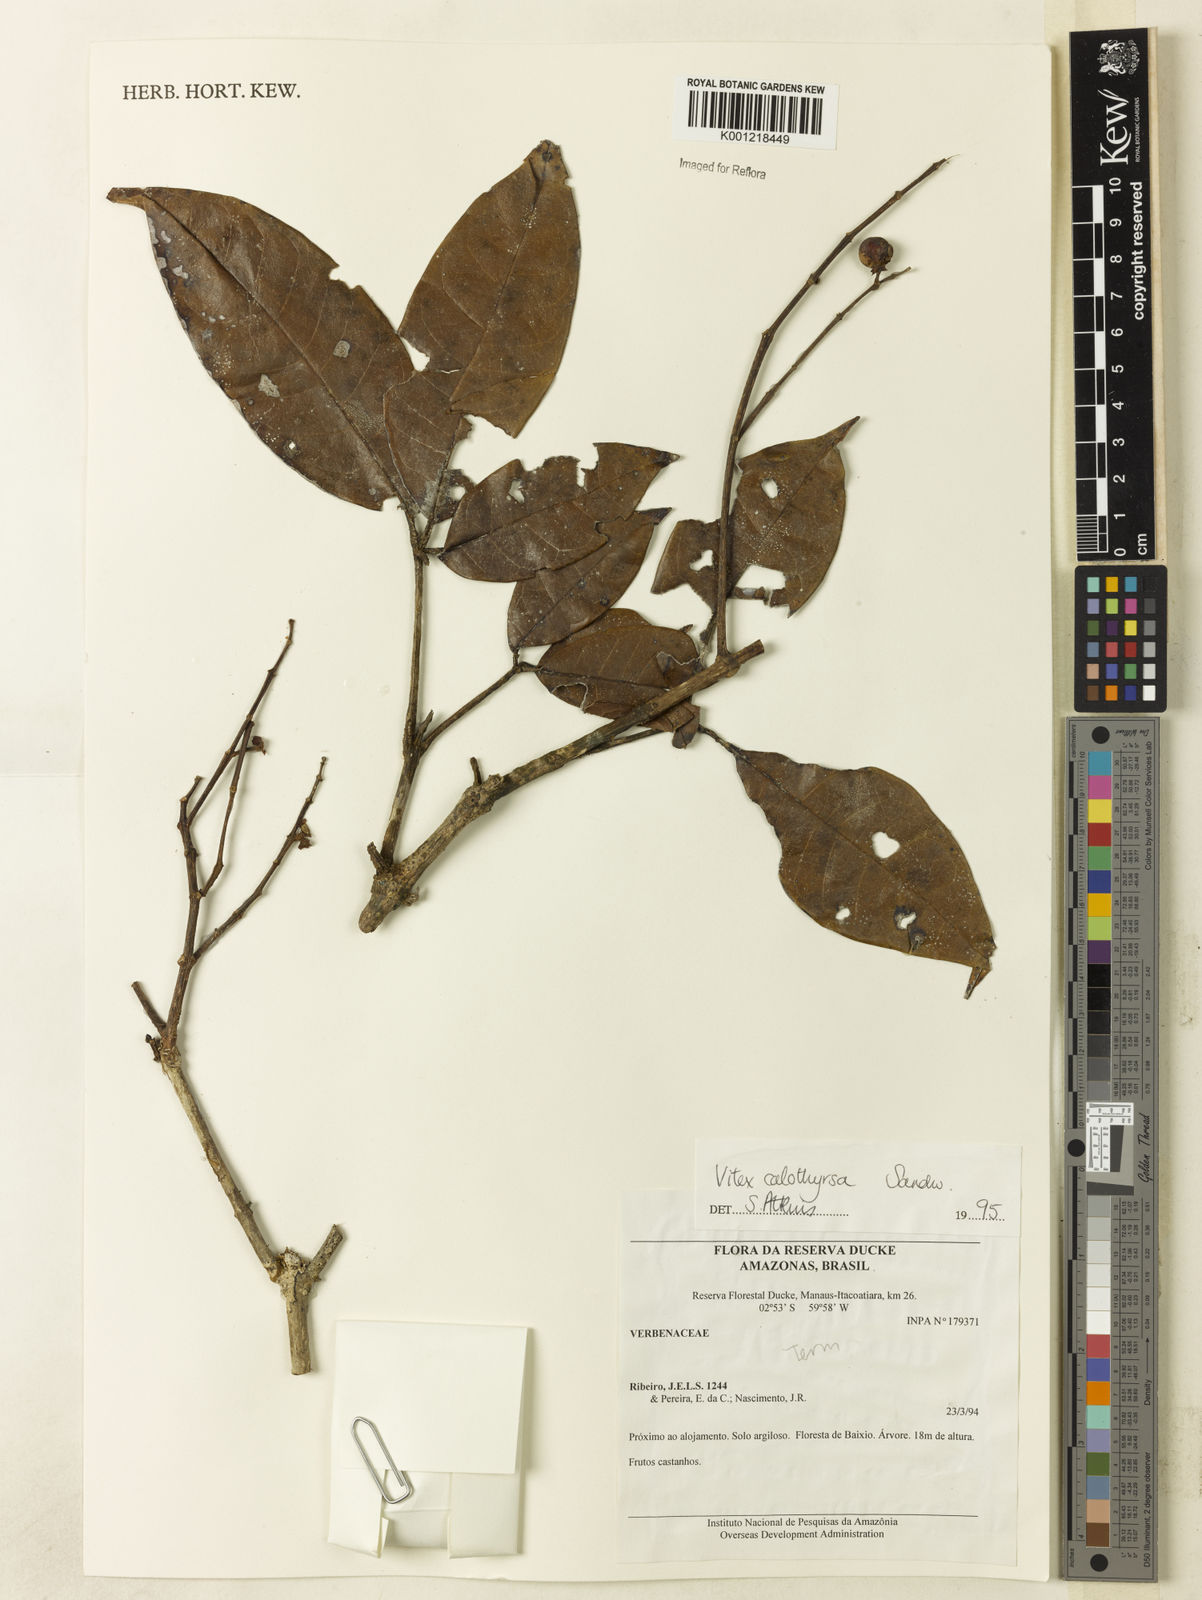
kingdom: Plantae
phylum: Tracheophyta
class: Magnoliopsida
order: Lamiales
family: Lamiaceae
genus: Vitex
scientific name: Vitex calothyrsa
